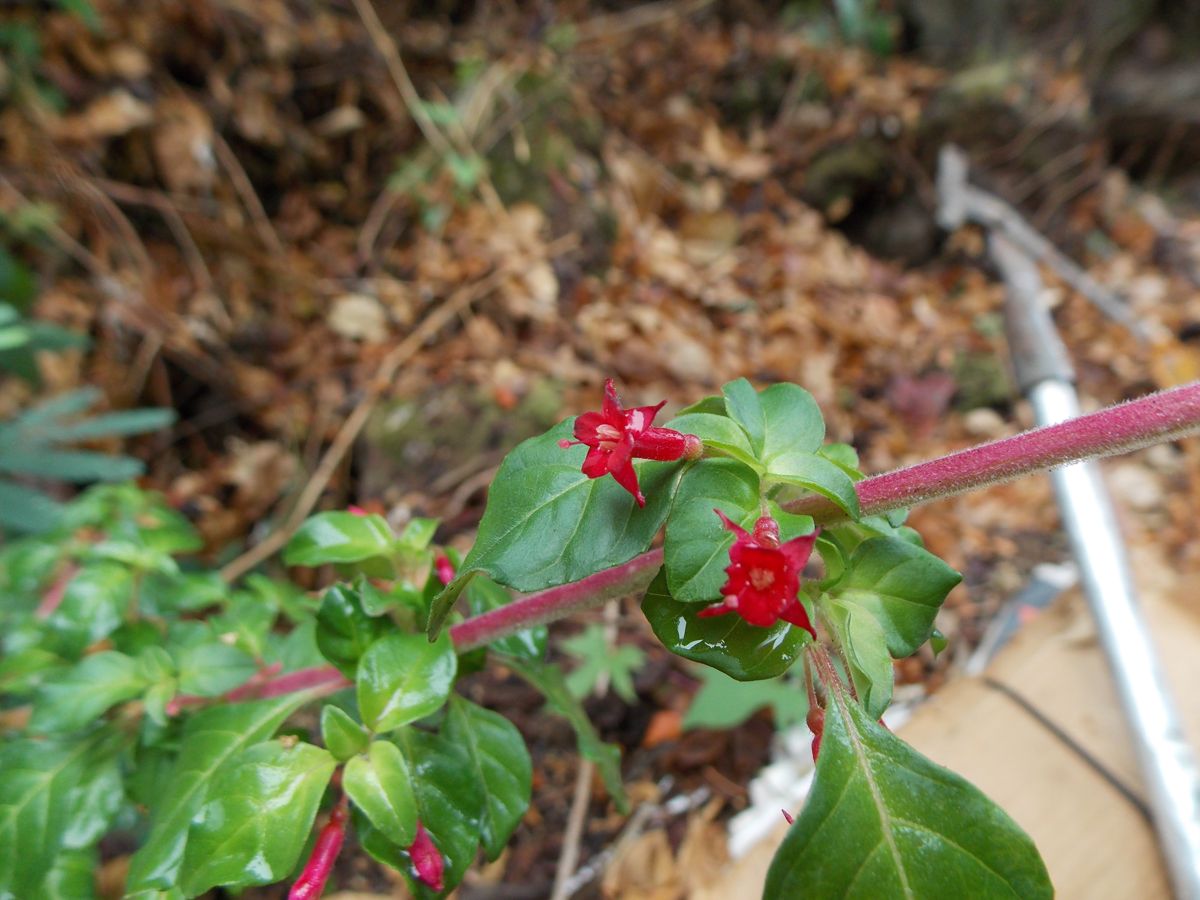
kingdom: Plantae
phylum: Tracheophyta
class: Magnoliopsida
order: Myrtales
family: Onagraceae
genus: Fuchsia
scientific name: Fuchsia encliandra
